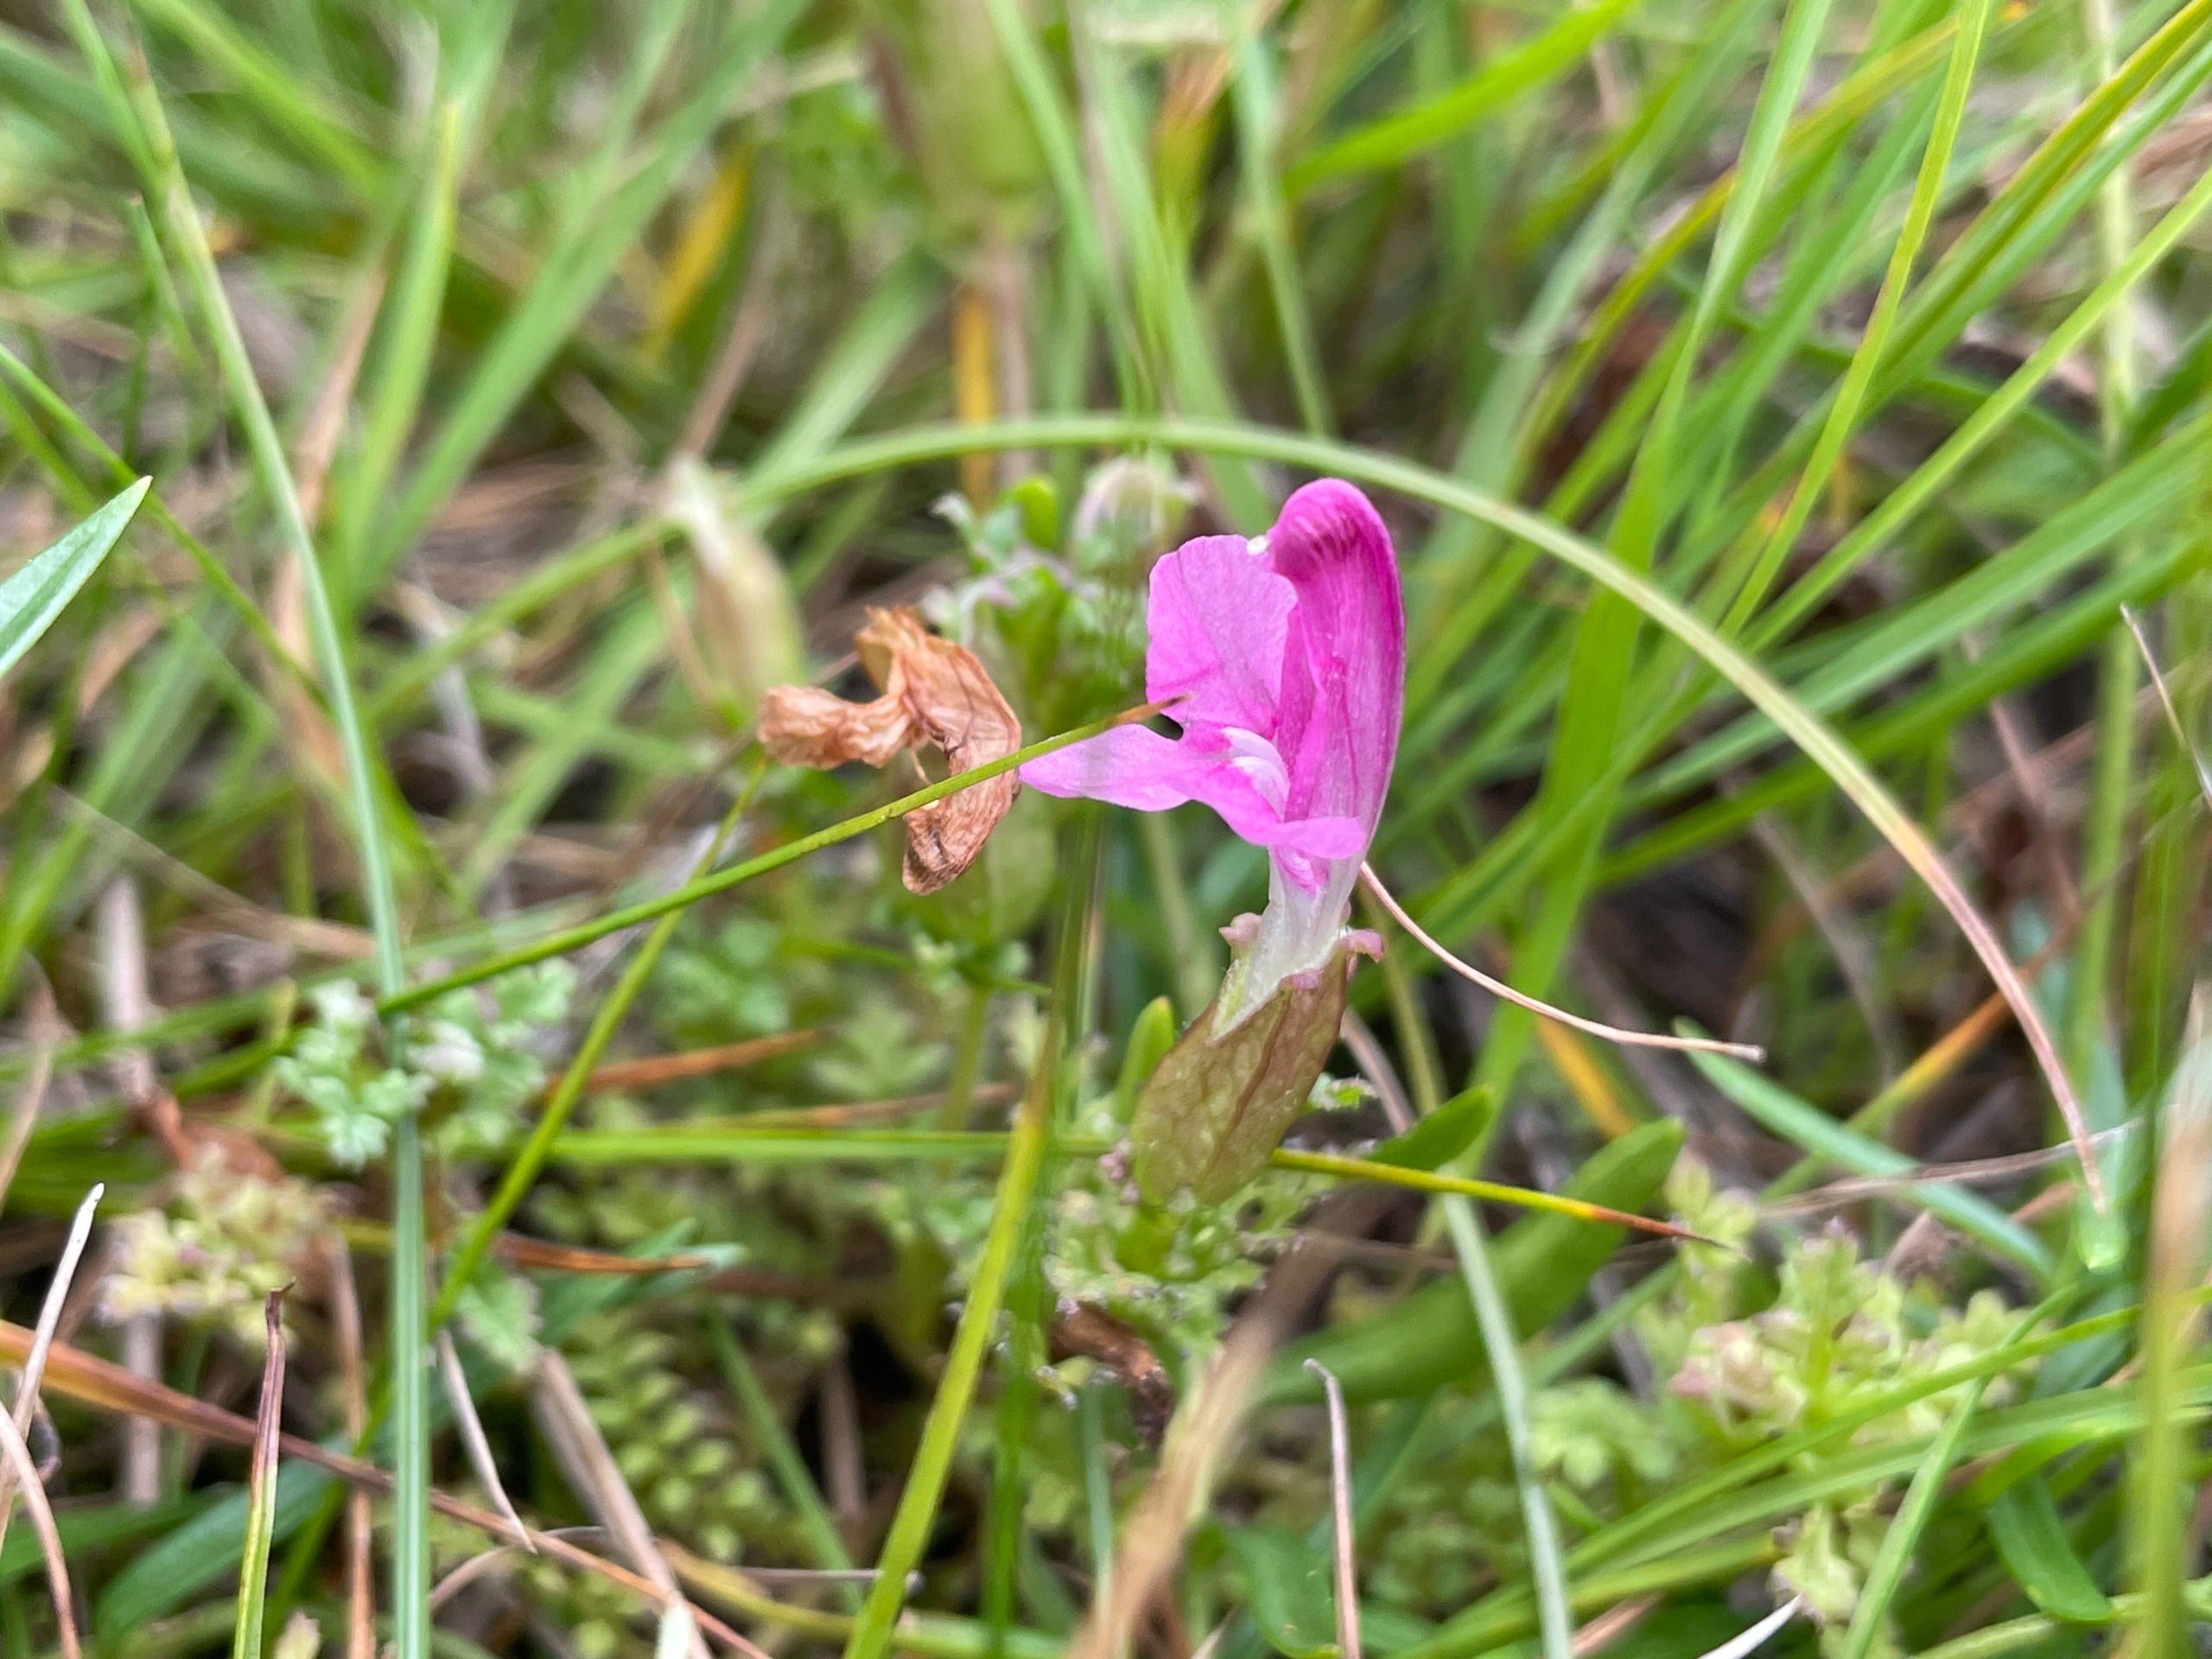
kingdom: Plantae
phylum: Tracheophyta
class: Magnoliopsida
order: Lamiales
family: Orobanchaceae
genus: Pedicularis
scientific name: Pedicularis palustris
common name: Eng-troldurt
